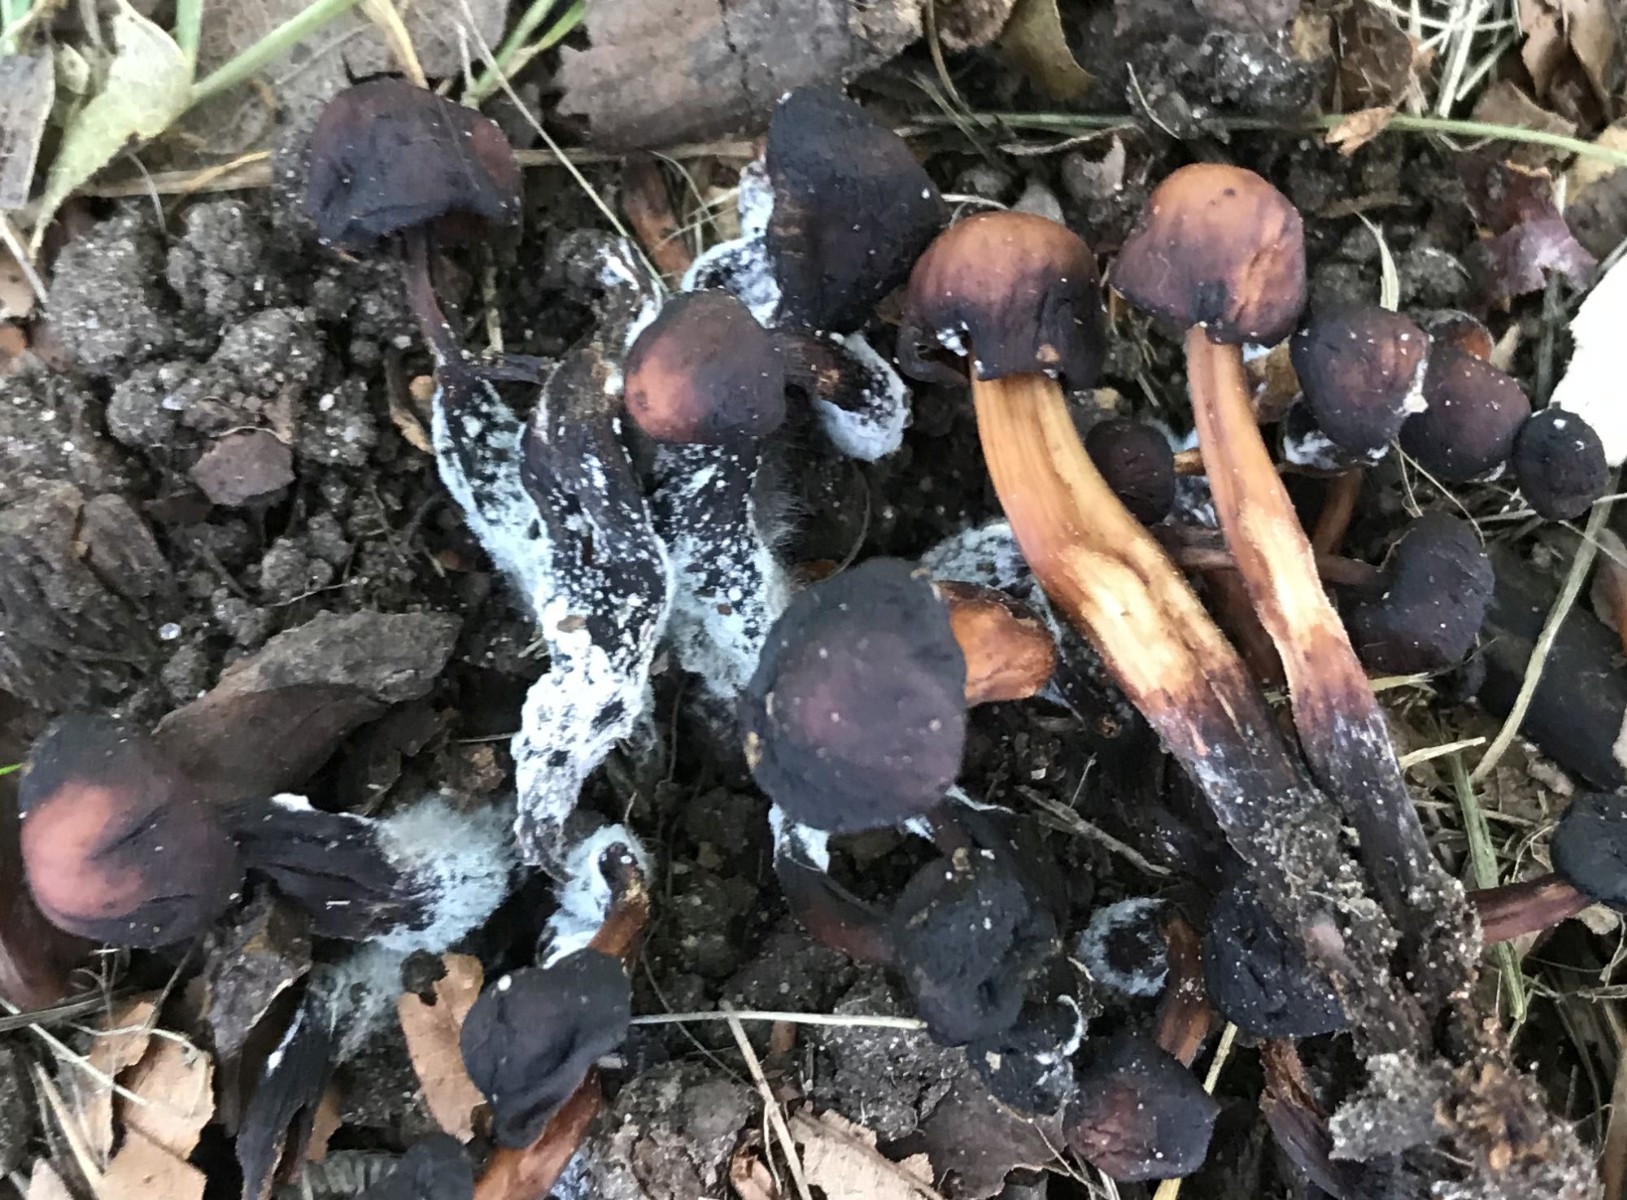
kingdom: Fungi
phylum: Basidiomycota
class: Agaricomycetes
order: Agaricales
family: Omphalotaceae
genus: Gymnopus
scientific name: Gymnopus fusipes
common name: tenstokket fladhat
